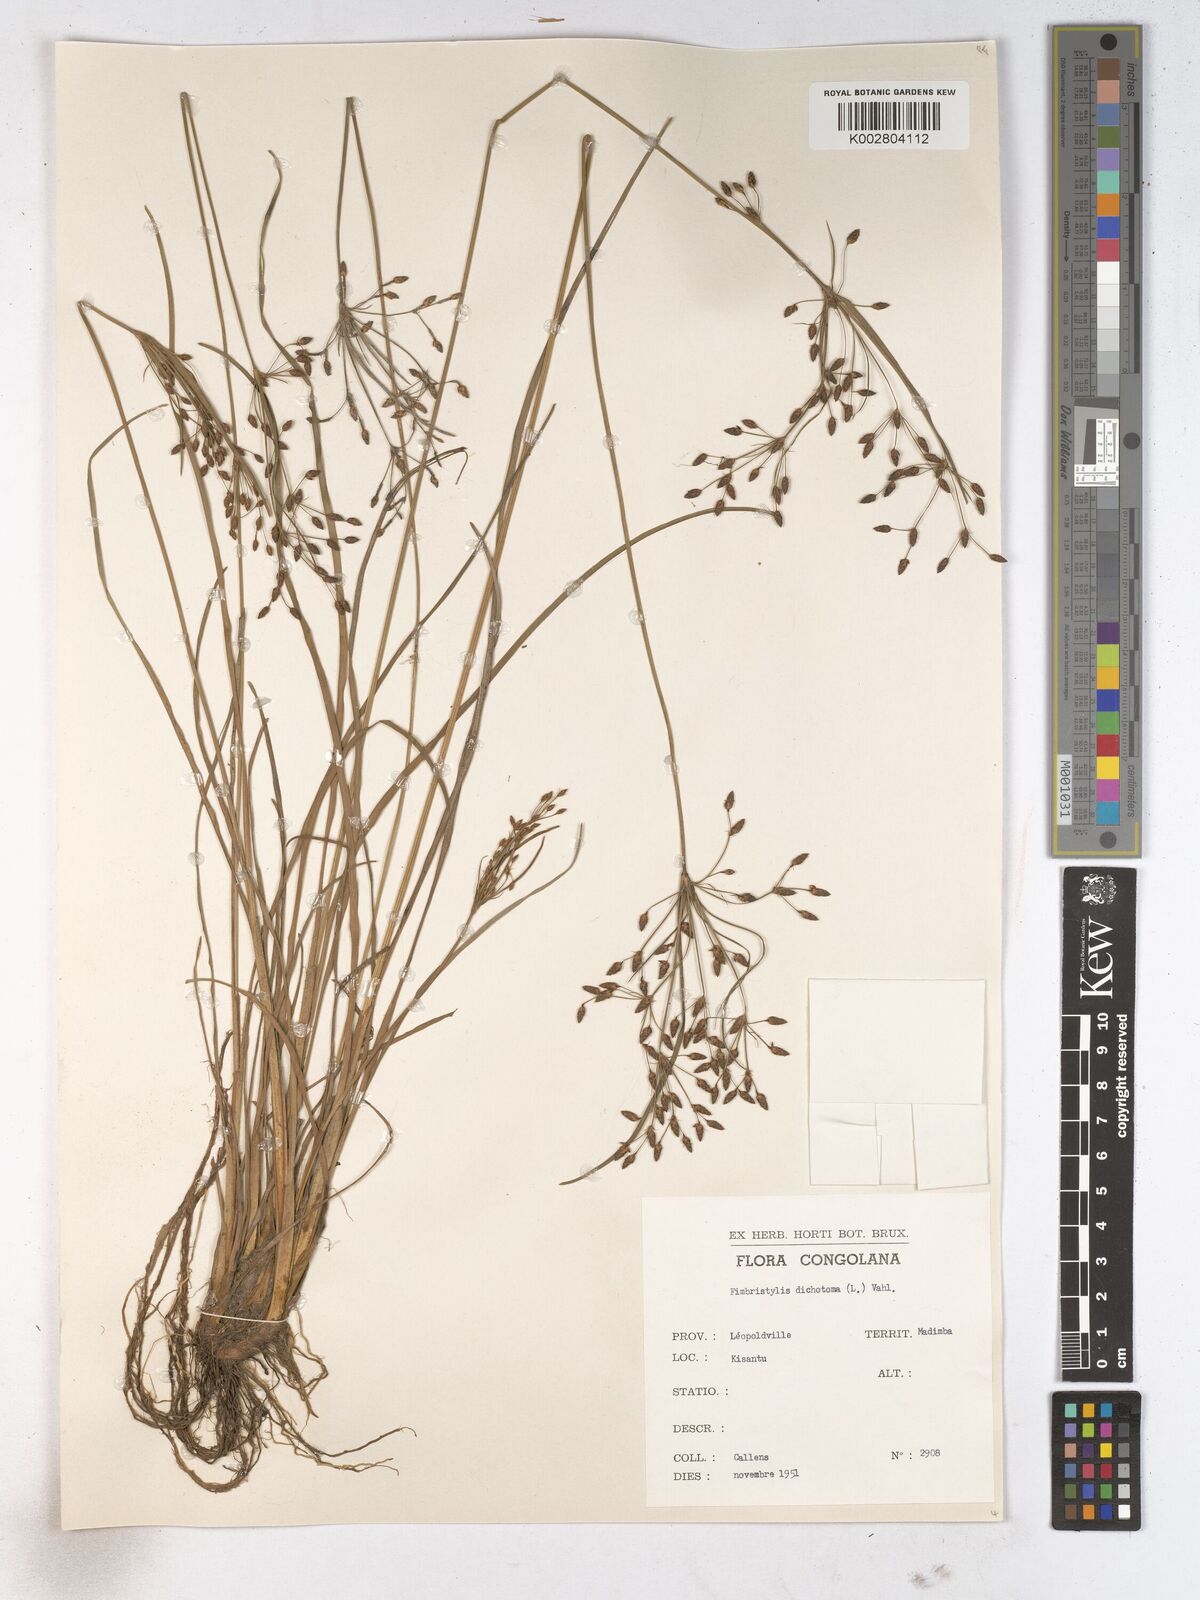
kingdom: Plantae
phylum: Tracheophyta
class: Liliopsida
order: Poales
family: Cyperaceae
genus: Fimbristylis
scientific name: Fimbristylis dichotoma
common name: Forked fimbry
